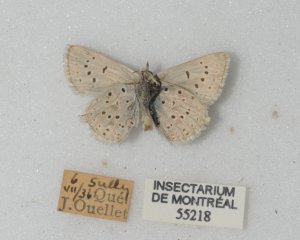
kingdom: Animalia
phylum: Arthropoda
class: Insecta
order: Lepidoptera
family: Sesiidae
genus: Sesia
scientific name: Sesia Lycaena epixanthe
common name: Bog Copper
